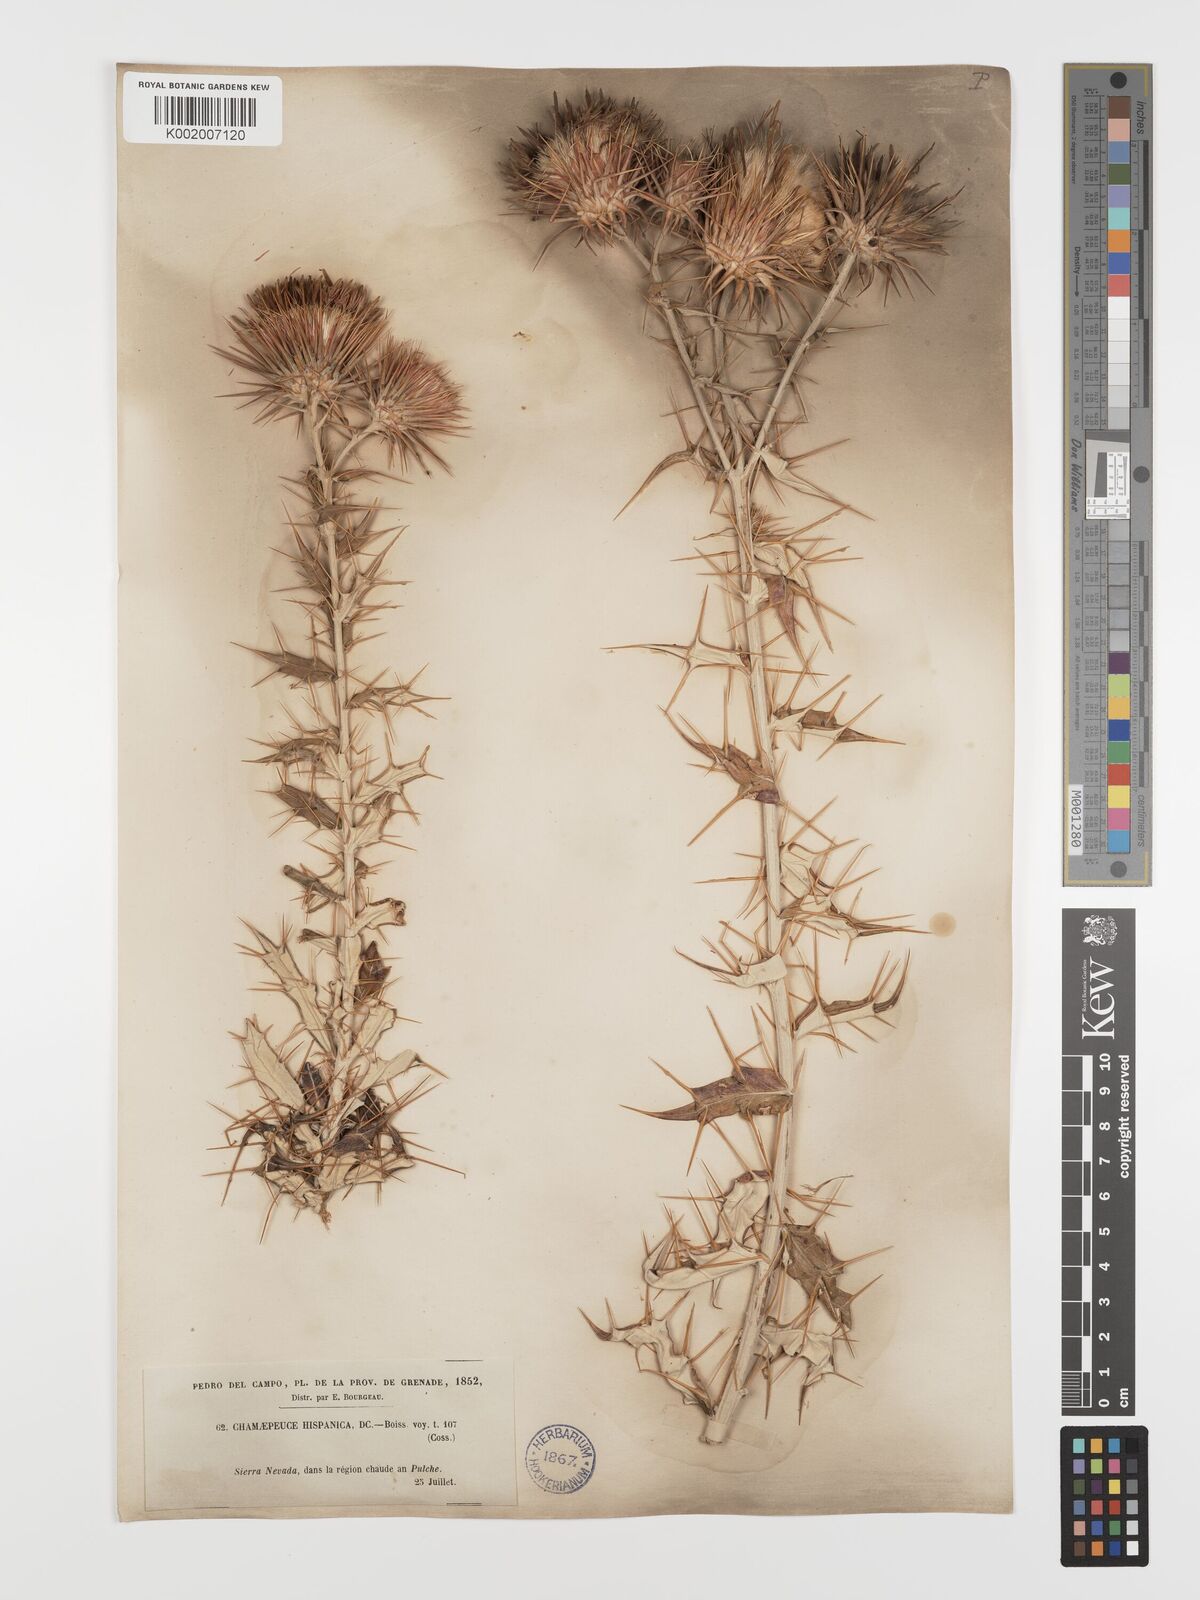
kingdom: Plantae
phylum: Tracheophyta
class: Magnoliopsida
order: Asterales
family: Asteraceae
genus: Ptilostemon
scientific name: Ptilostemon hispanicus
